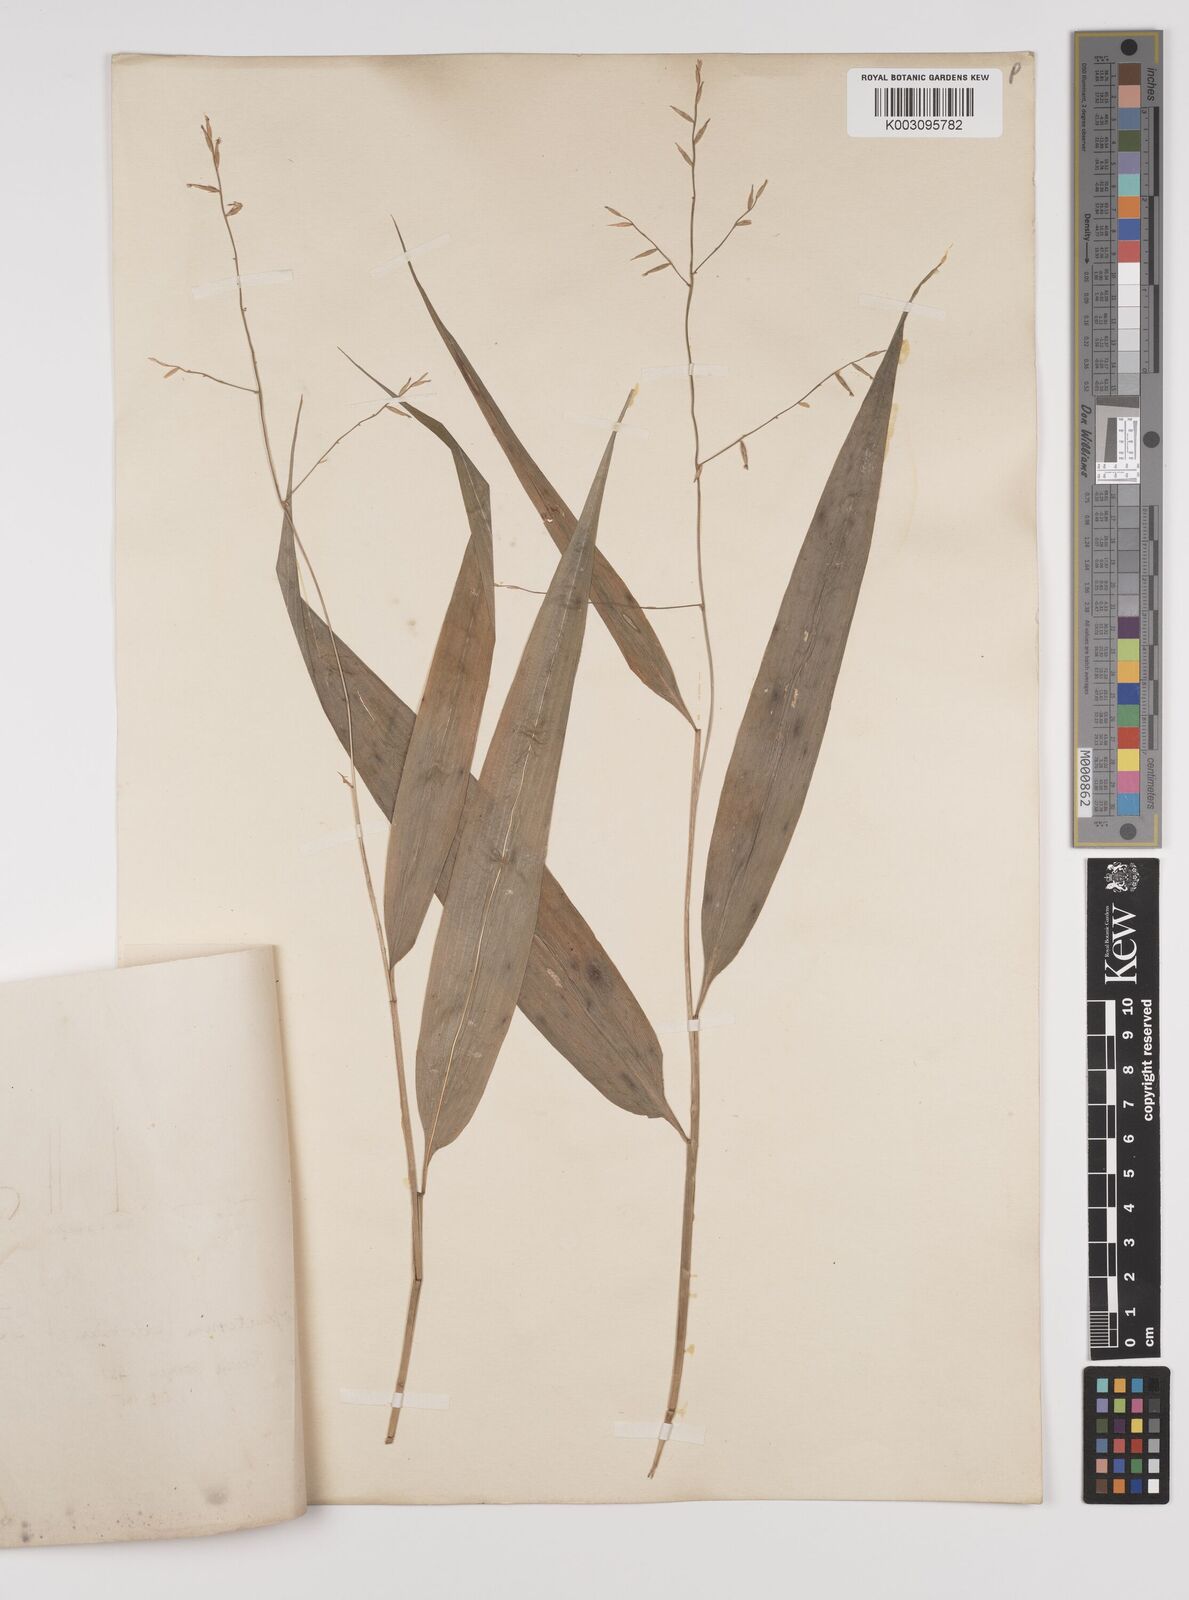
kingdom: Plantae
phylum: Tracheophyta
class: Liliopsida
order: Poales
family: Poaceae
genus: Lophatherum
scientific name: Lophatherum gracile
